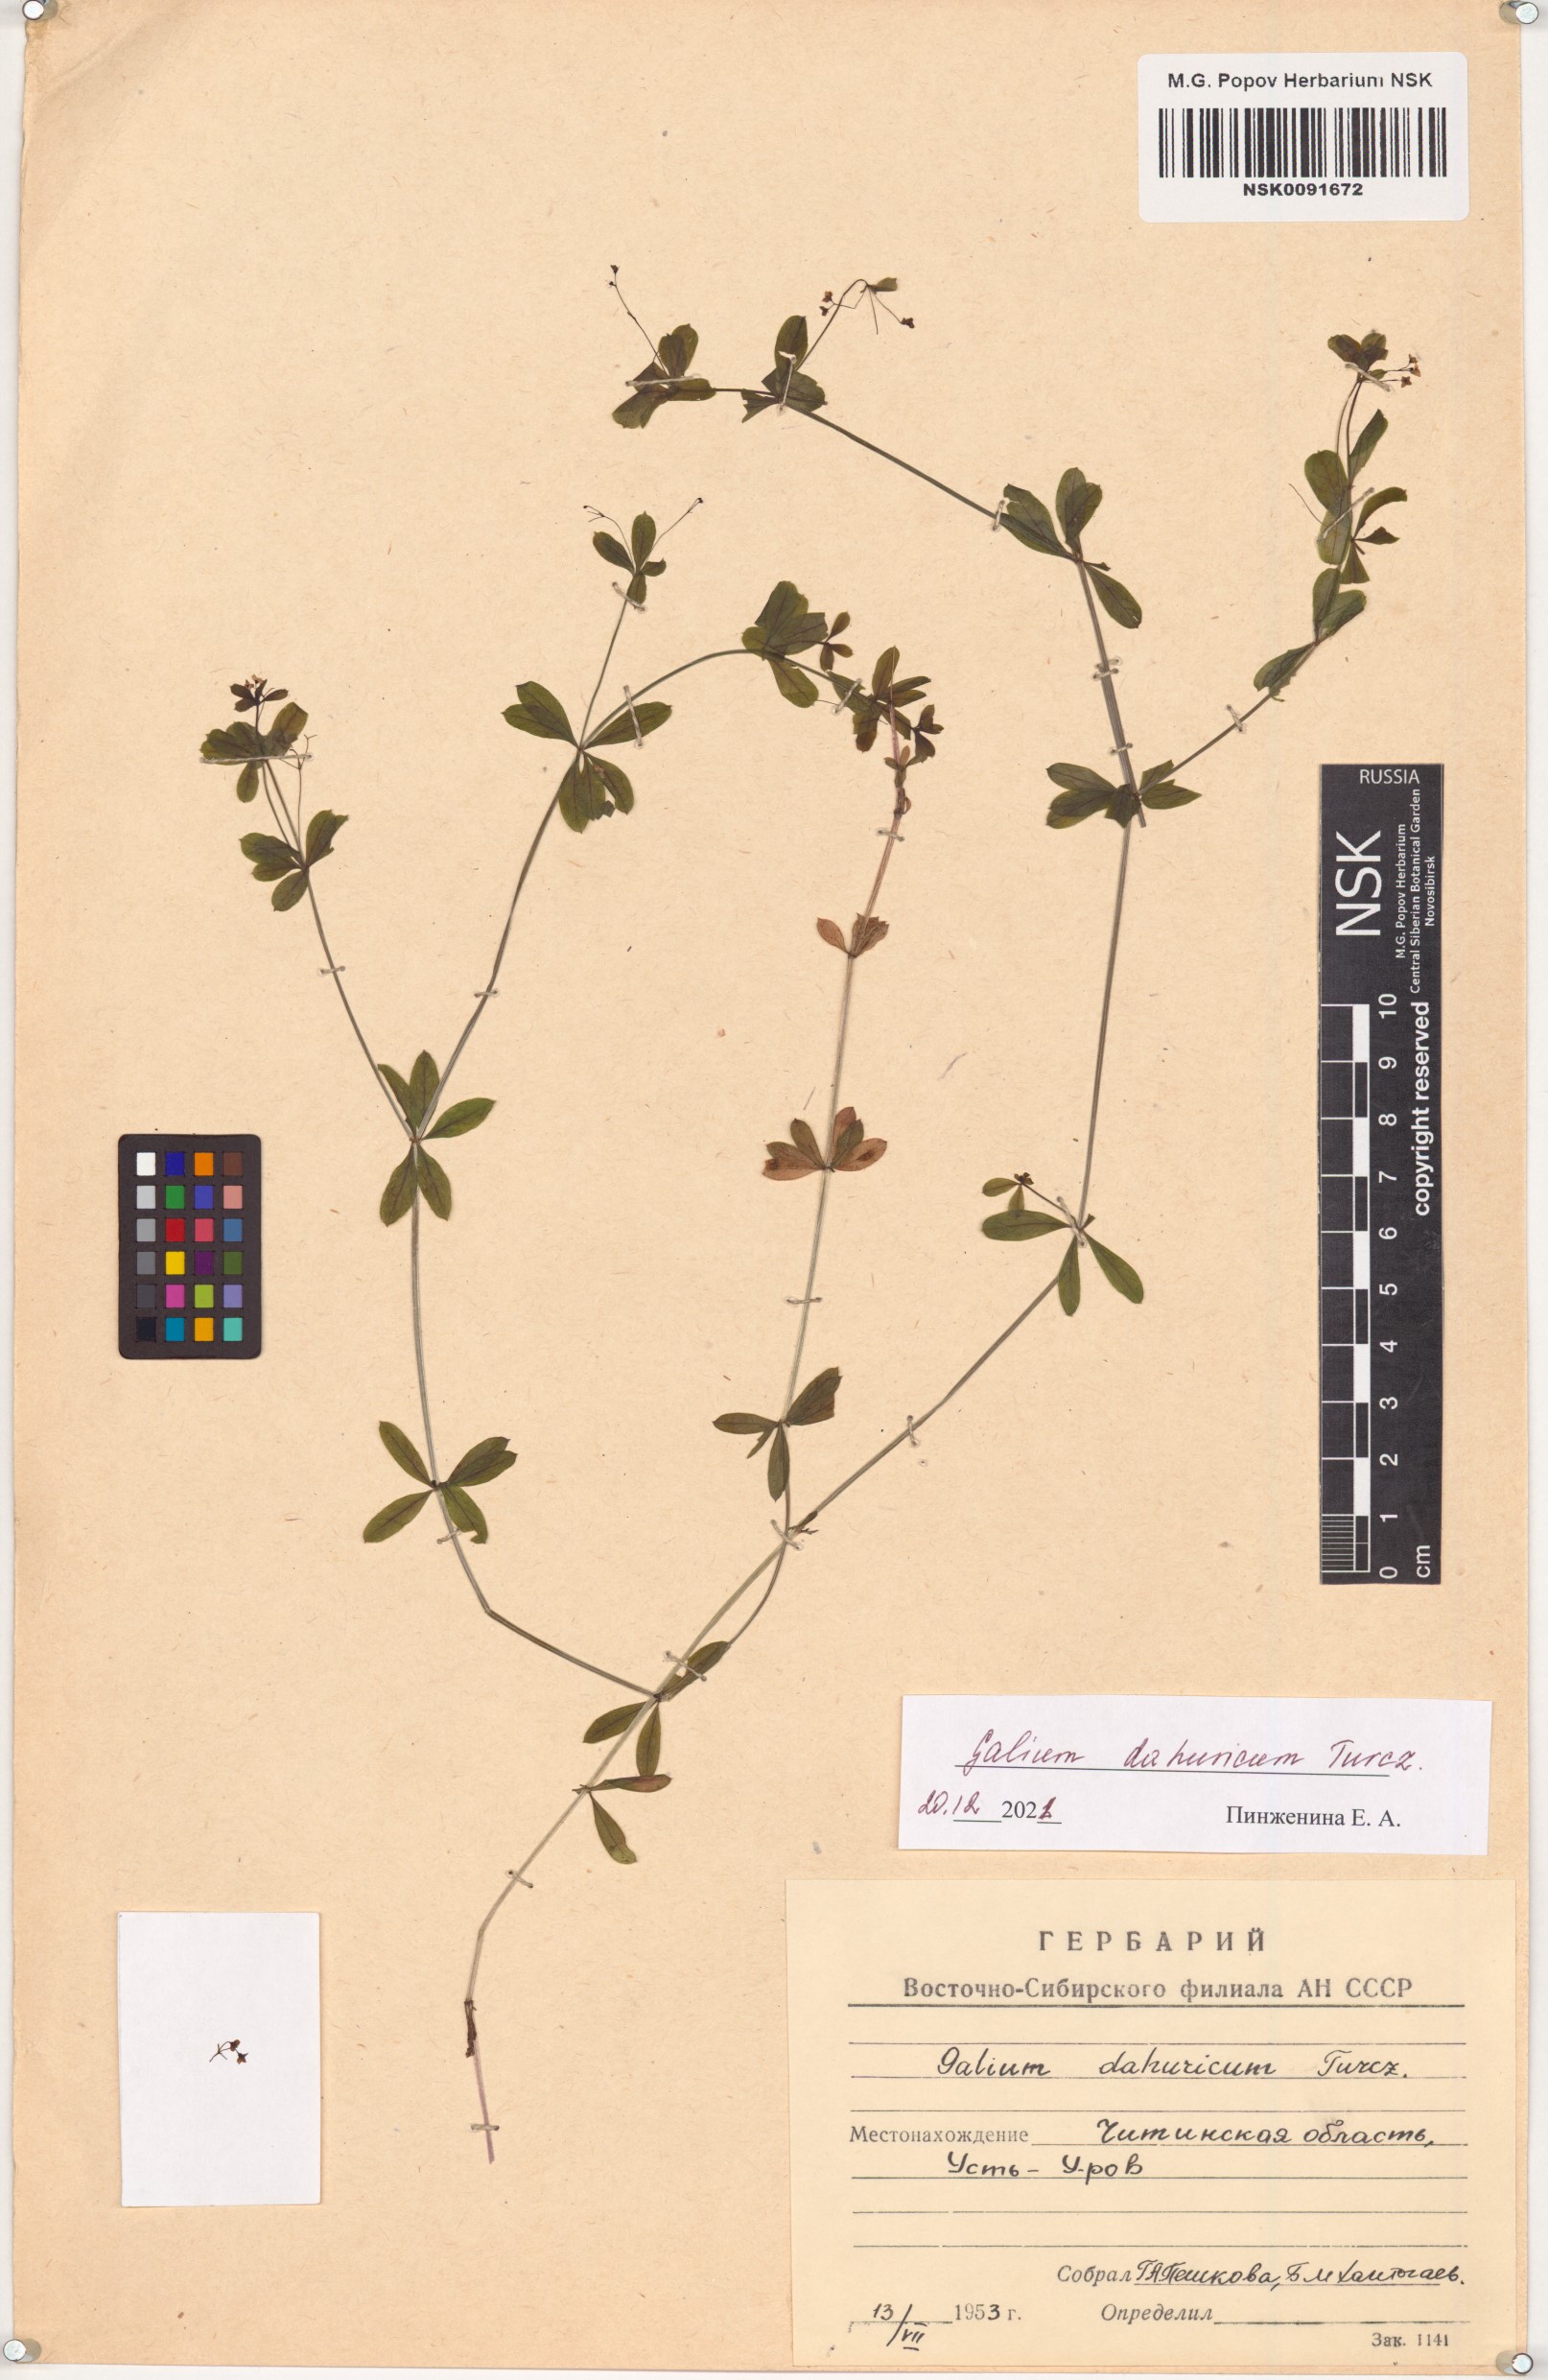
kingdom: Plantae
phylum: Tracheophyta
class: Magnoliopsida
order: Gentianales
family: Rubiaceae
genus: Galium
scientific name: Galium dahuricum
